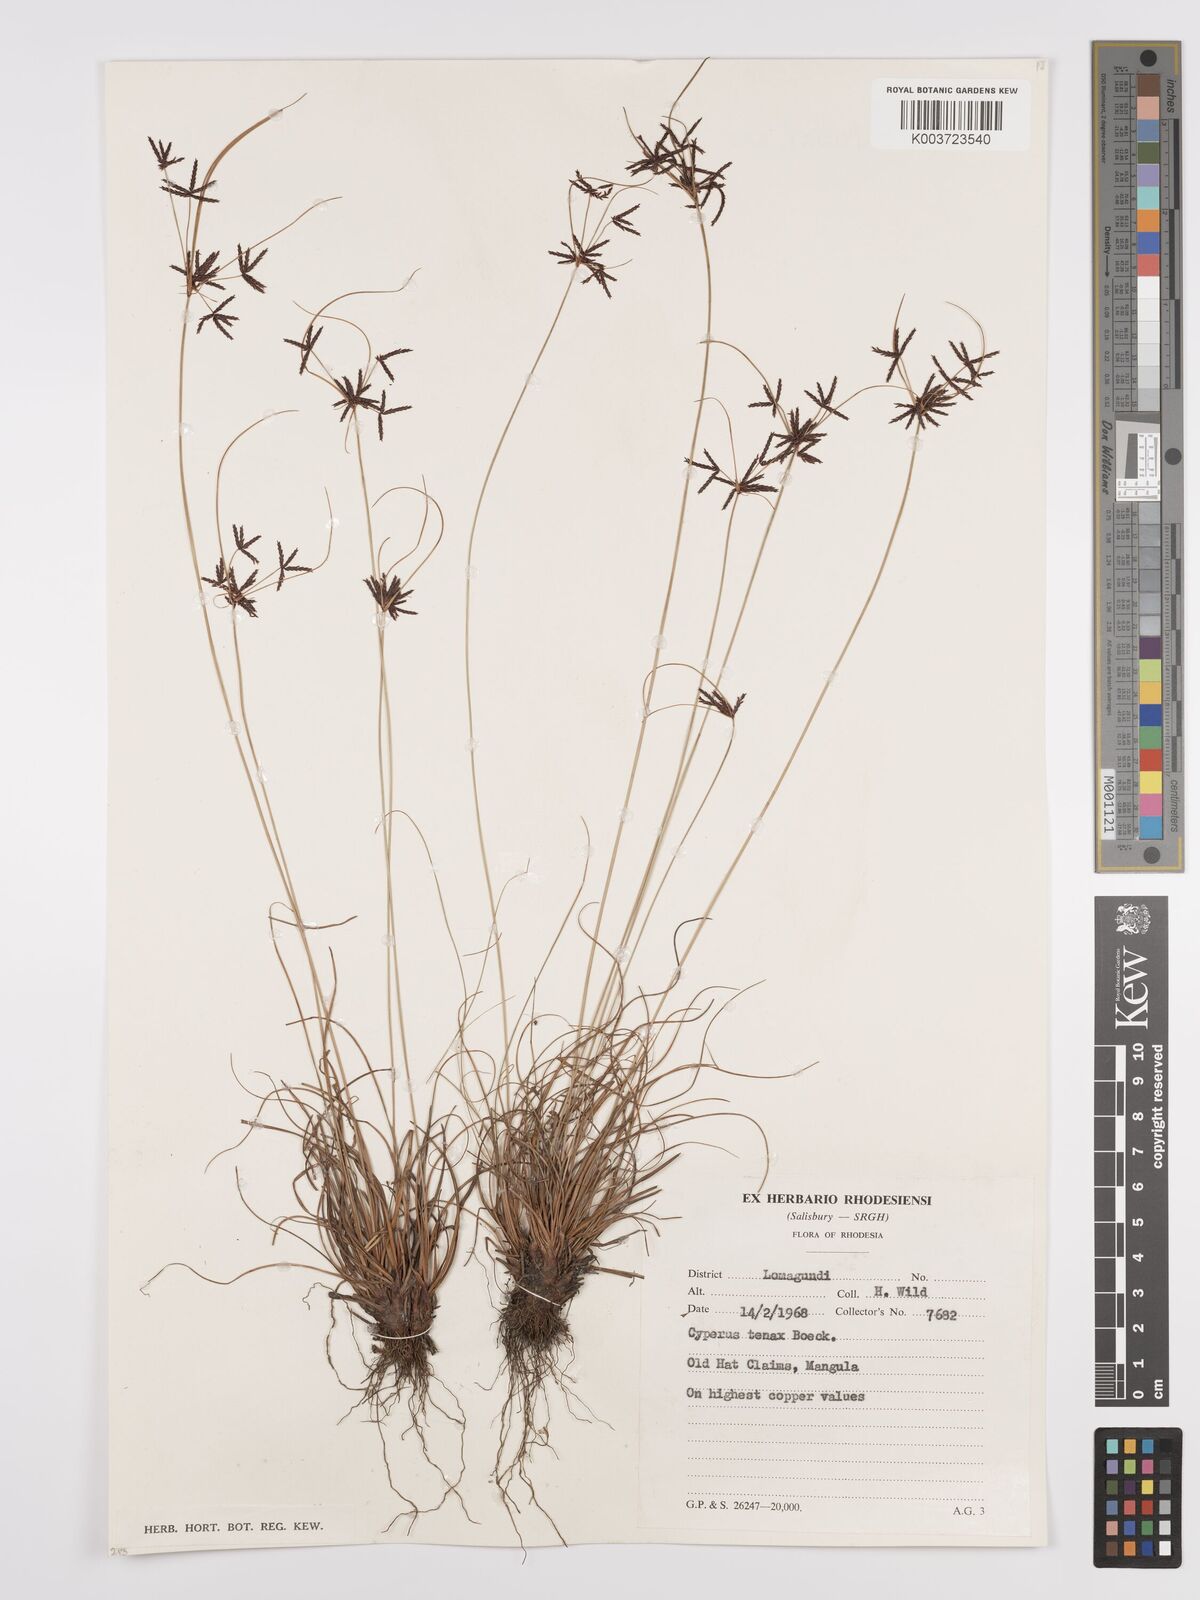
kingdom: Plantae
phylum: Tracheophyta
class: Liliopsida
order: Poales
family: Cyperaceae
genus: Cyperus
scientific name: Cyperus tenax
